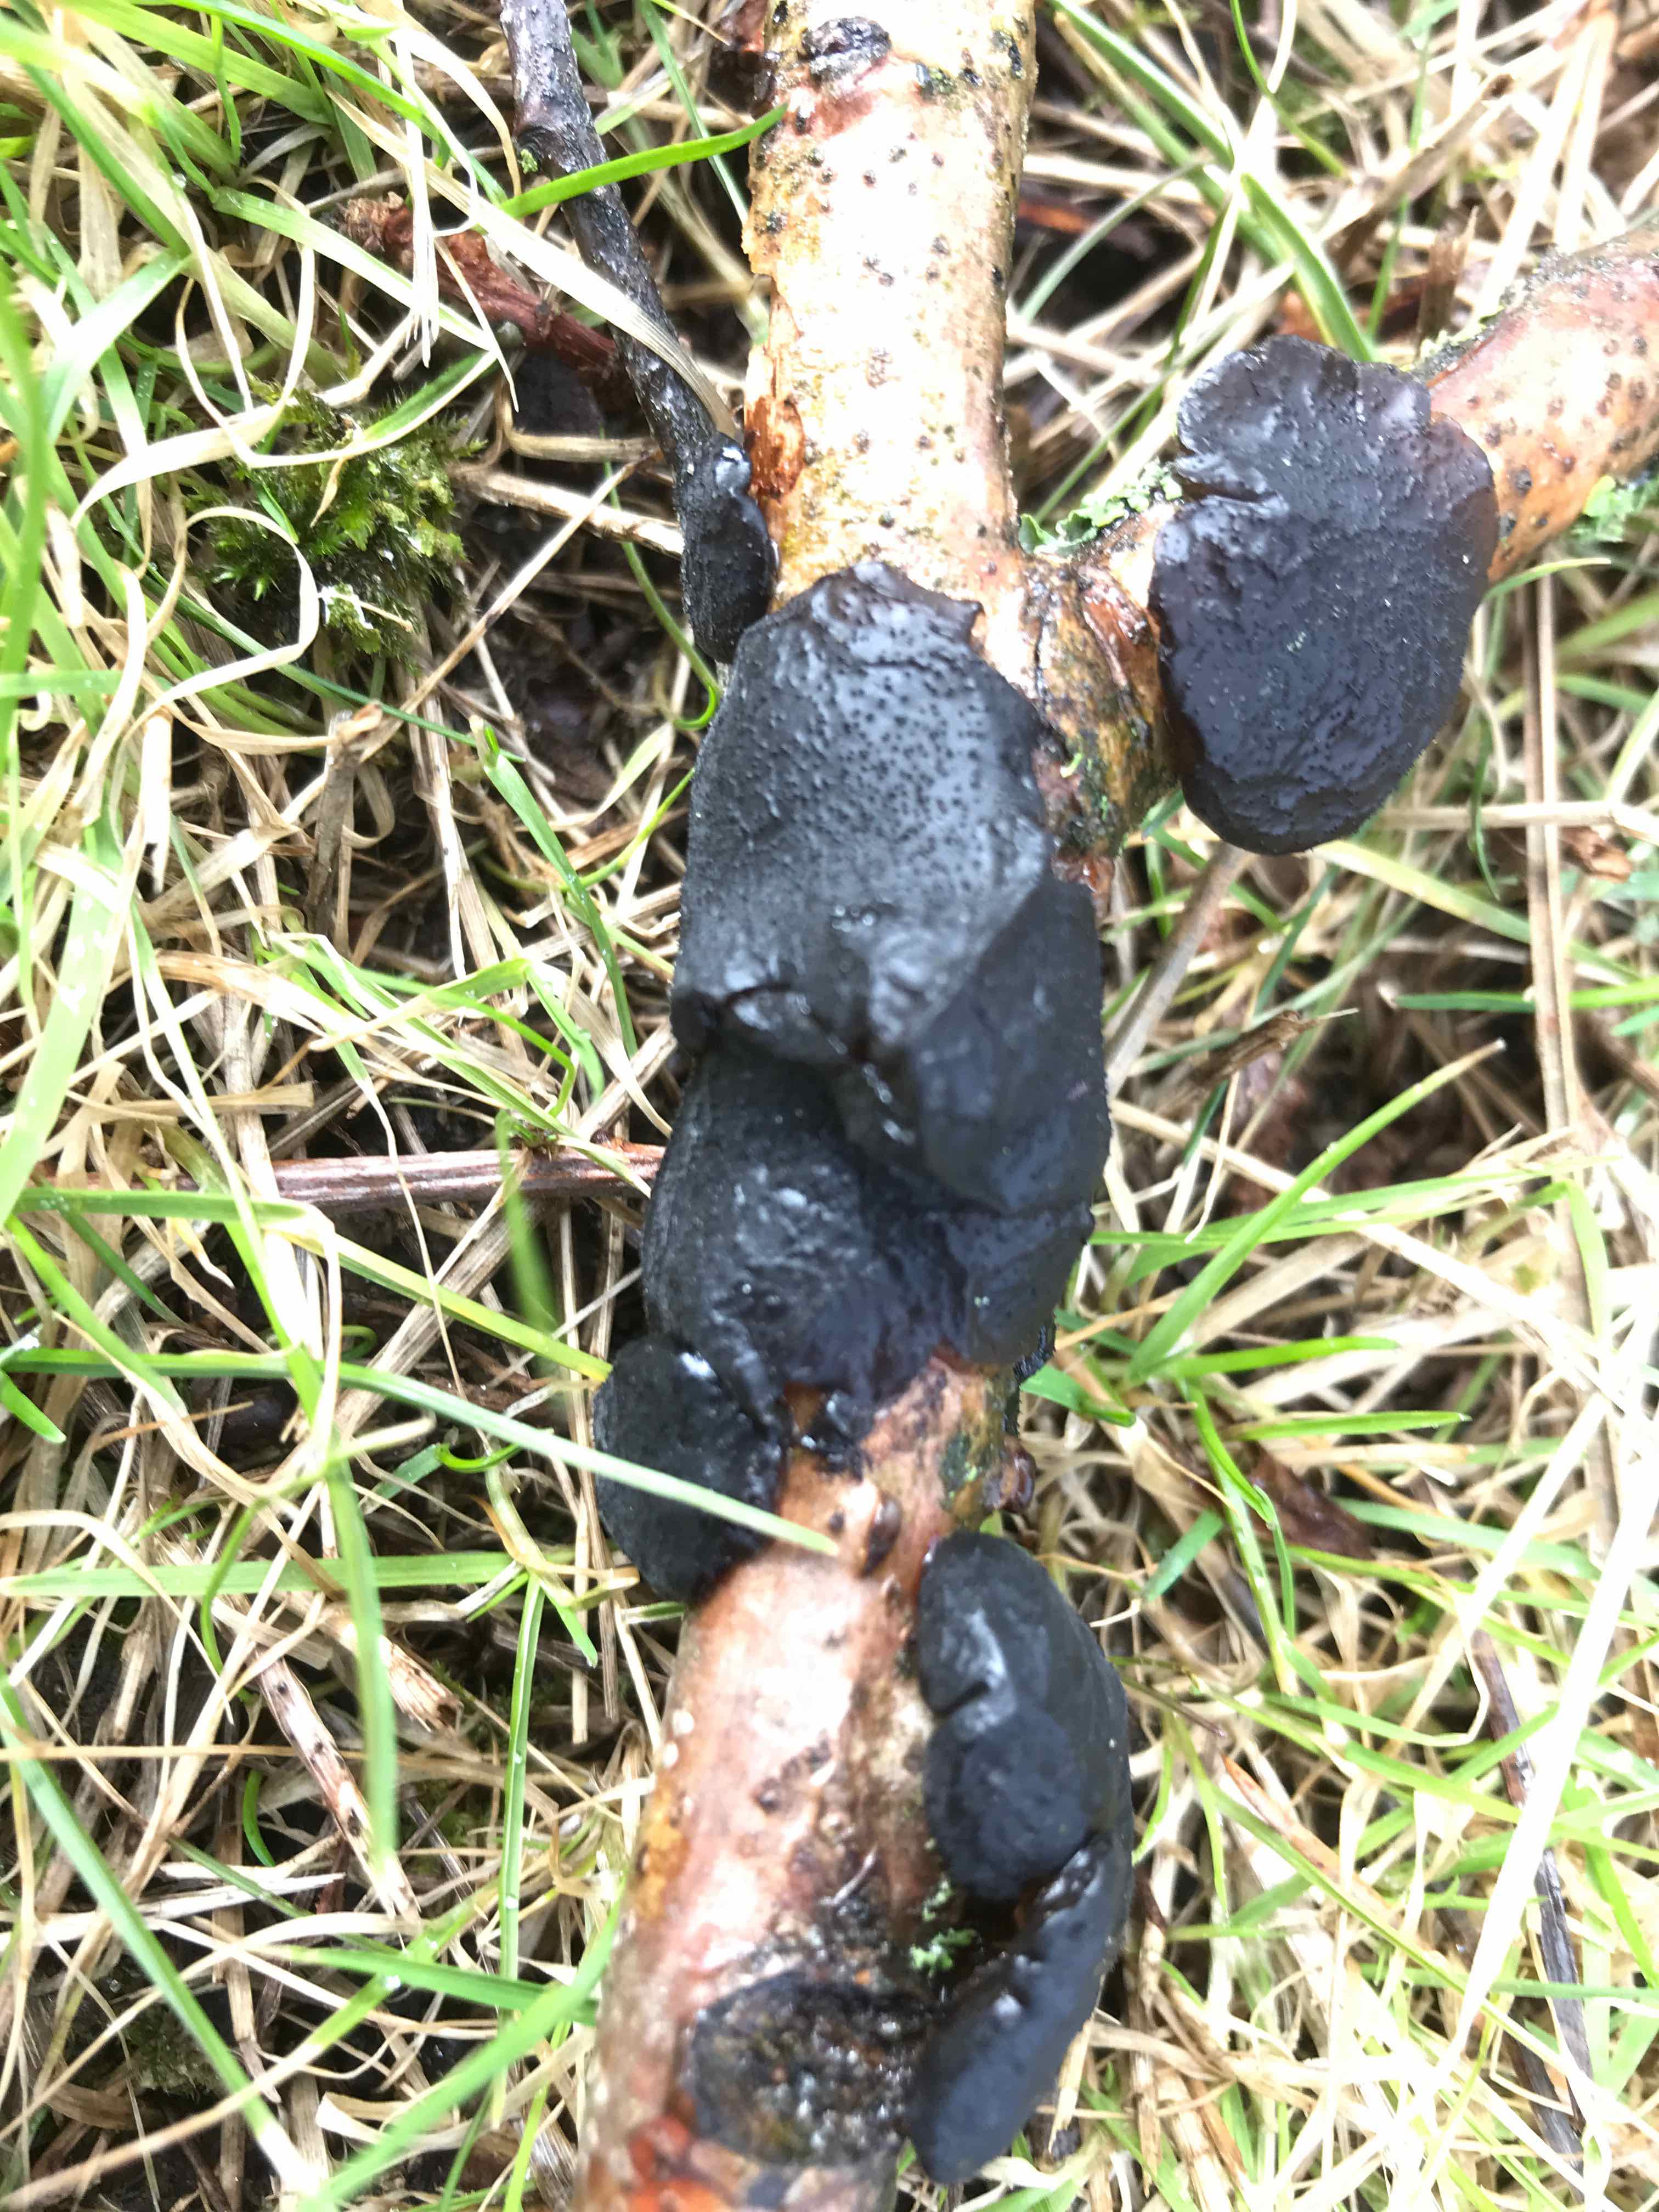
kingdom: Fungi
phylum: Basidiomycota
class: Agaricomycetes
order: Auriculariales
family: Auriculariaceae
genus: Exidia
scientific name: Exidia glandulosa
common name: ege-bævretop
